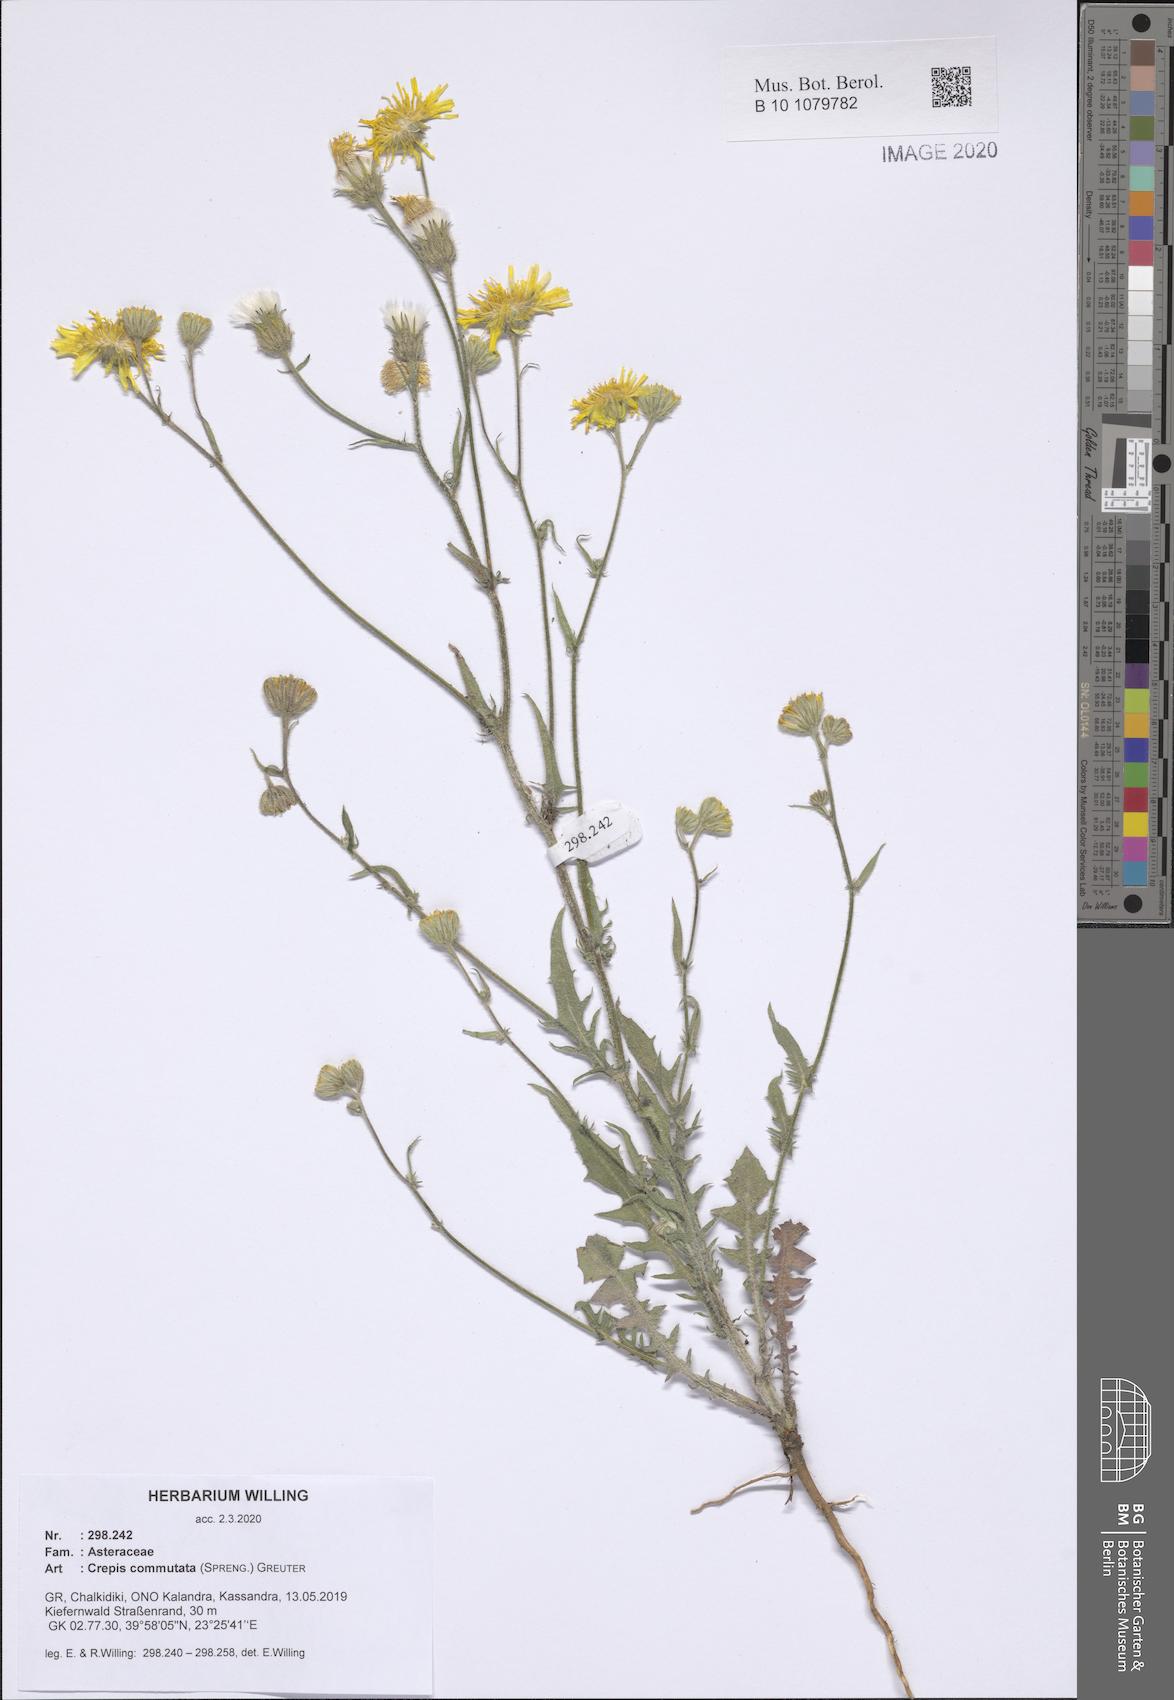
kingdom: Plantae
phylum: Tracheophyta
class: Magnoliopsida
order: Asterales
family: Asteraceae
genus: Crepis
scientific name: Crepis commutata
